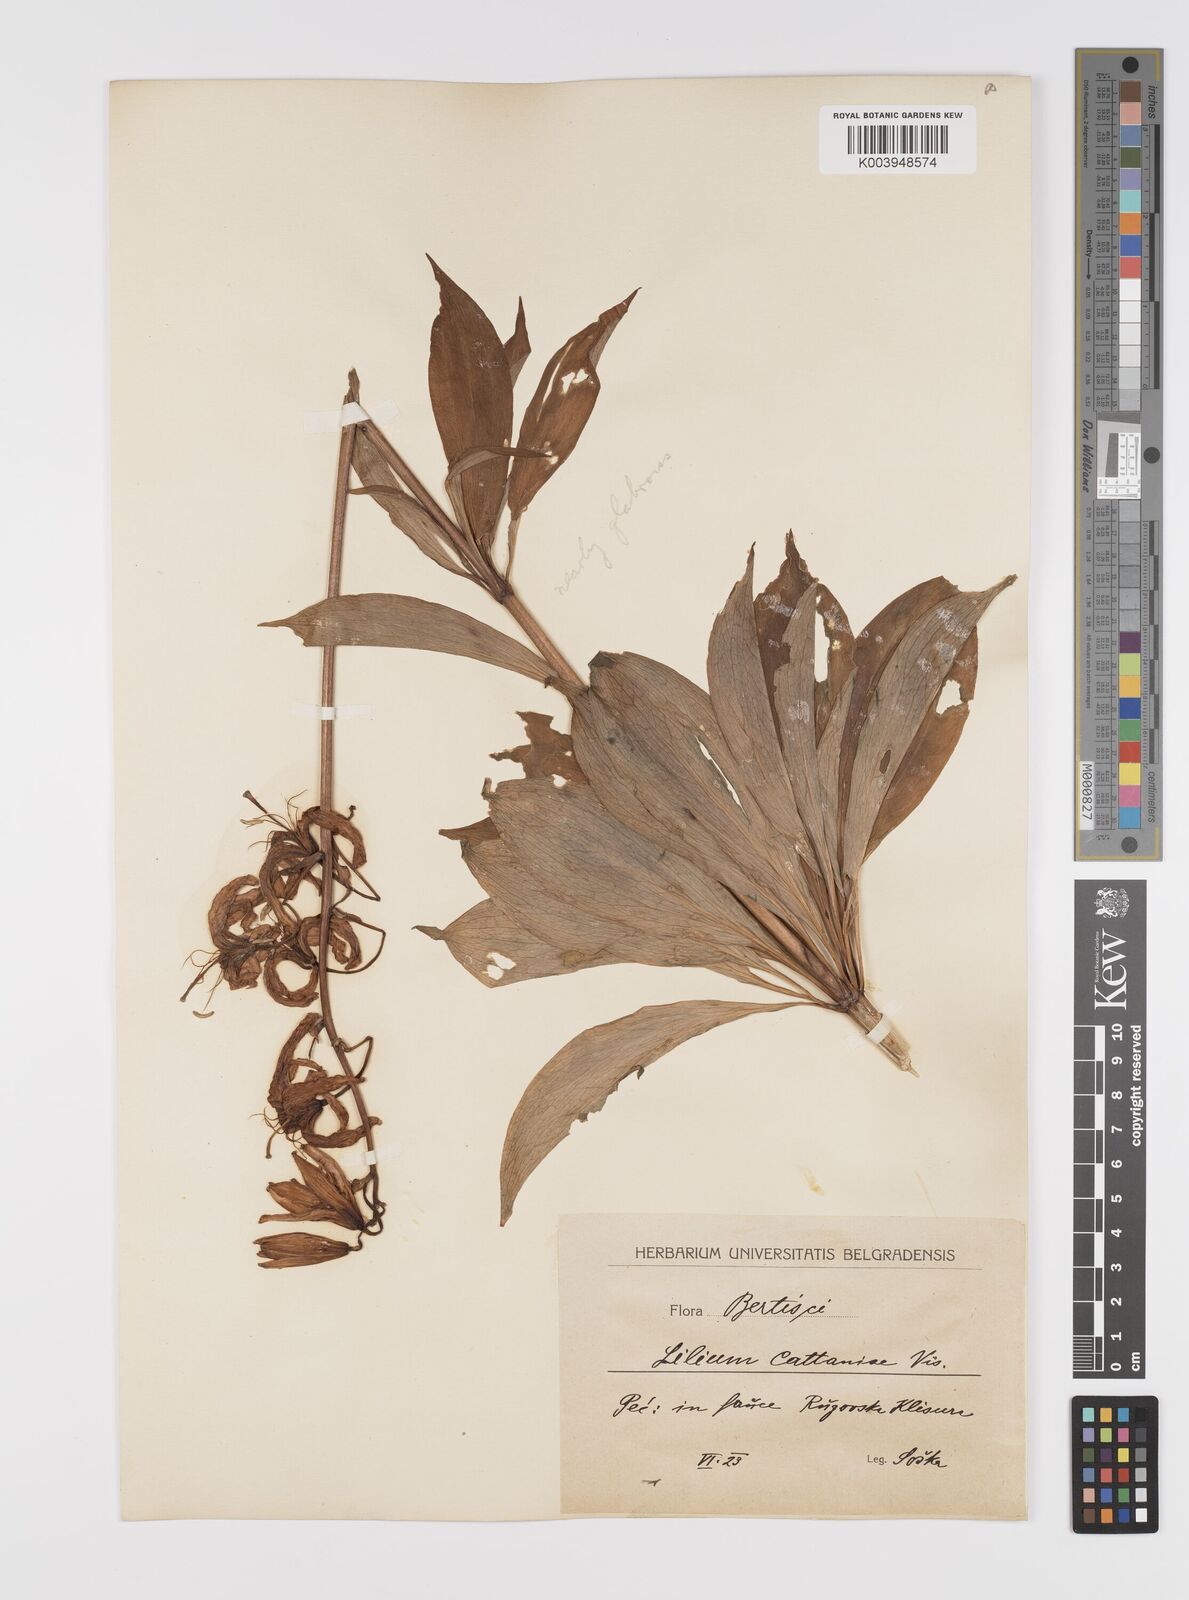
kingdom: Plantae
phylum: Tracheophyta
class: Liliopsida
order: Liliales
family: Liliaceae
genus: Lilium
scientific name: Lilium martagon
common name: Martagon lily
